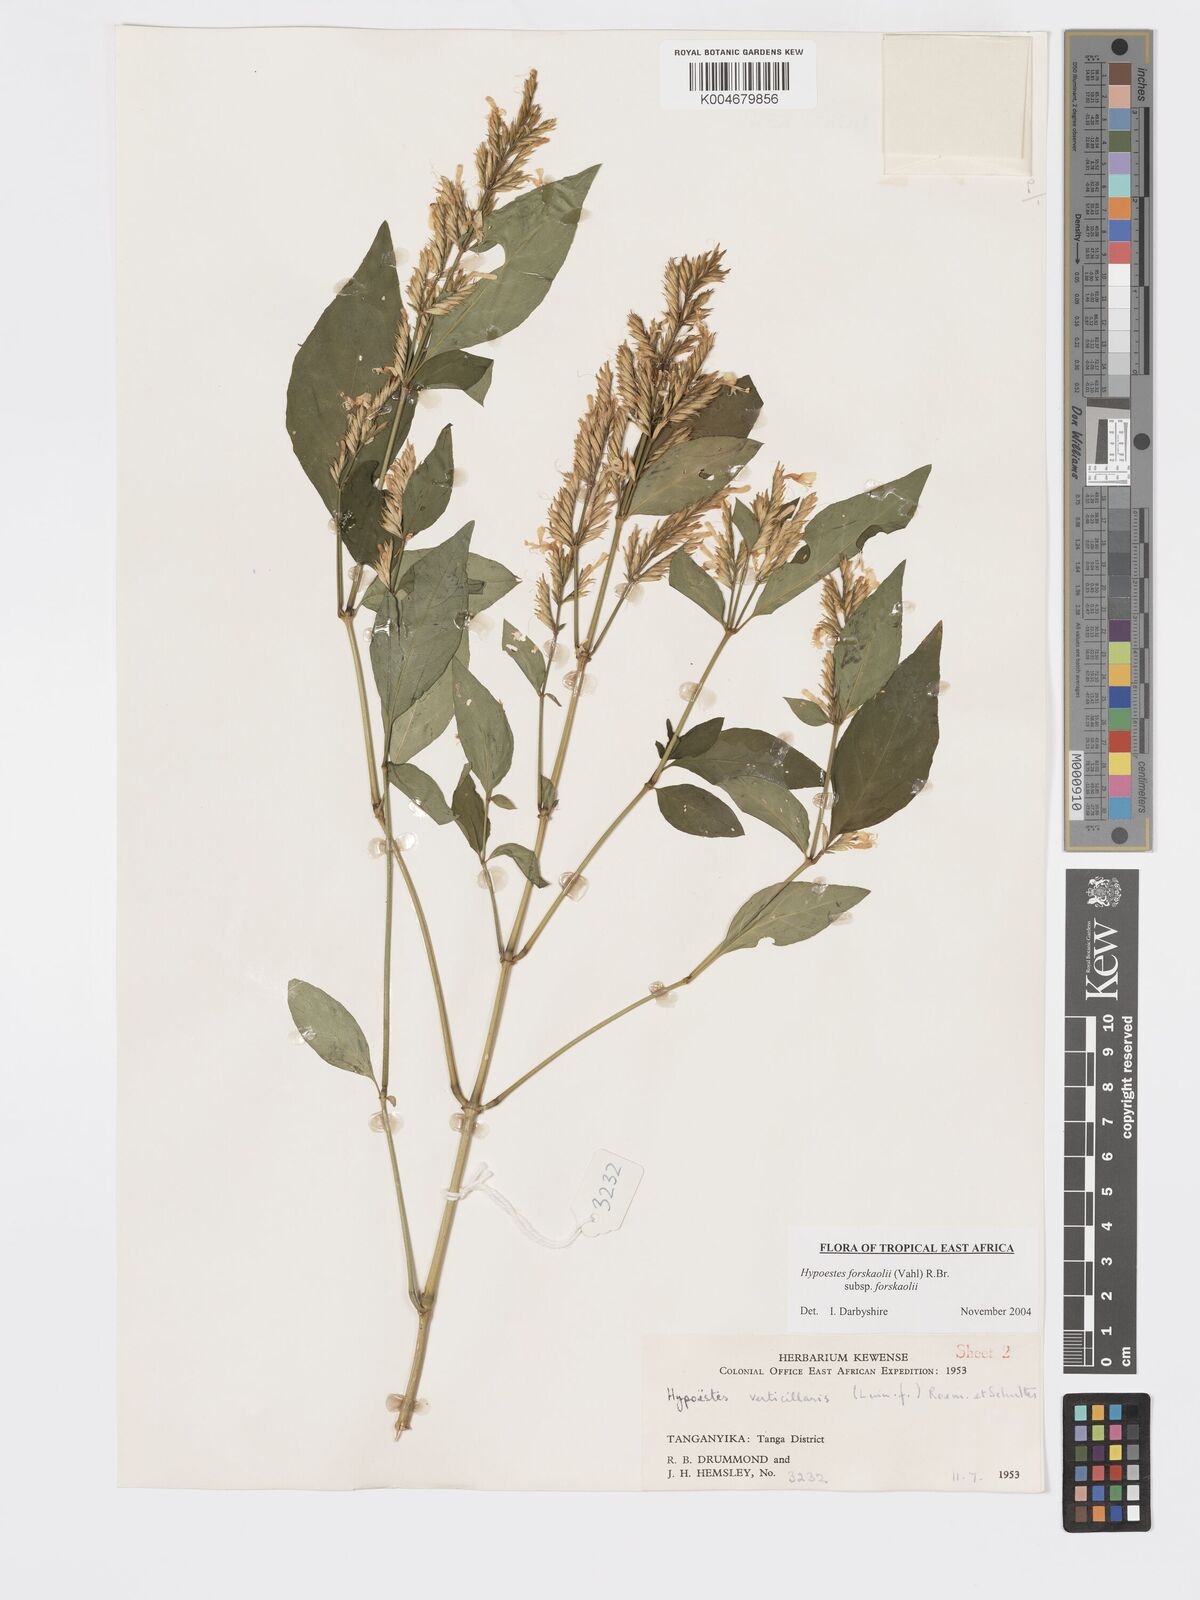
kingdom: Plantae
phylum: Tracheophyta
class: Magnoliopsida
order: Lamiales
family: Acanthaceae
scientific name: Acanthaceae
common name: Acanthaceae
